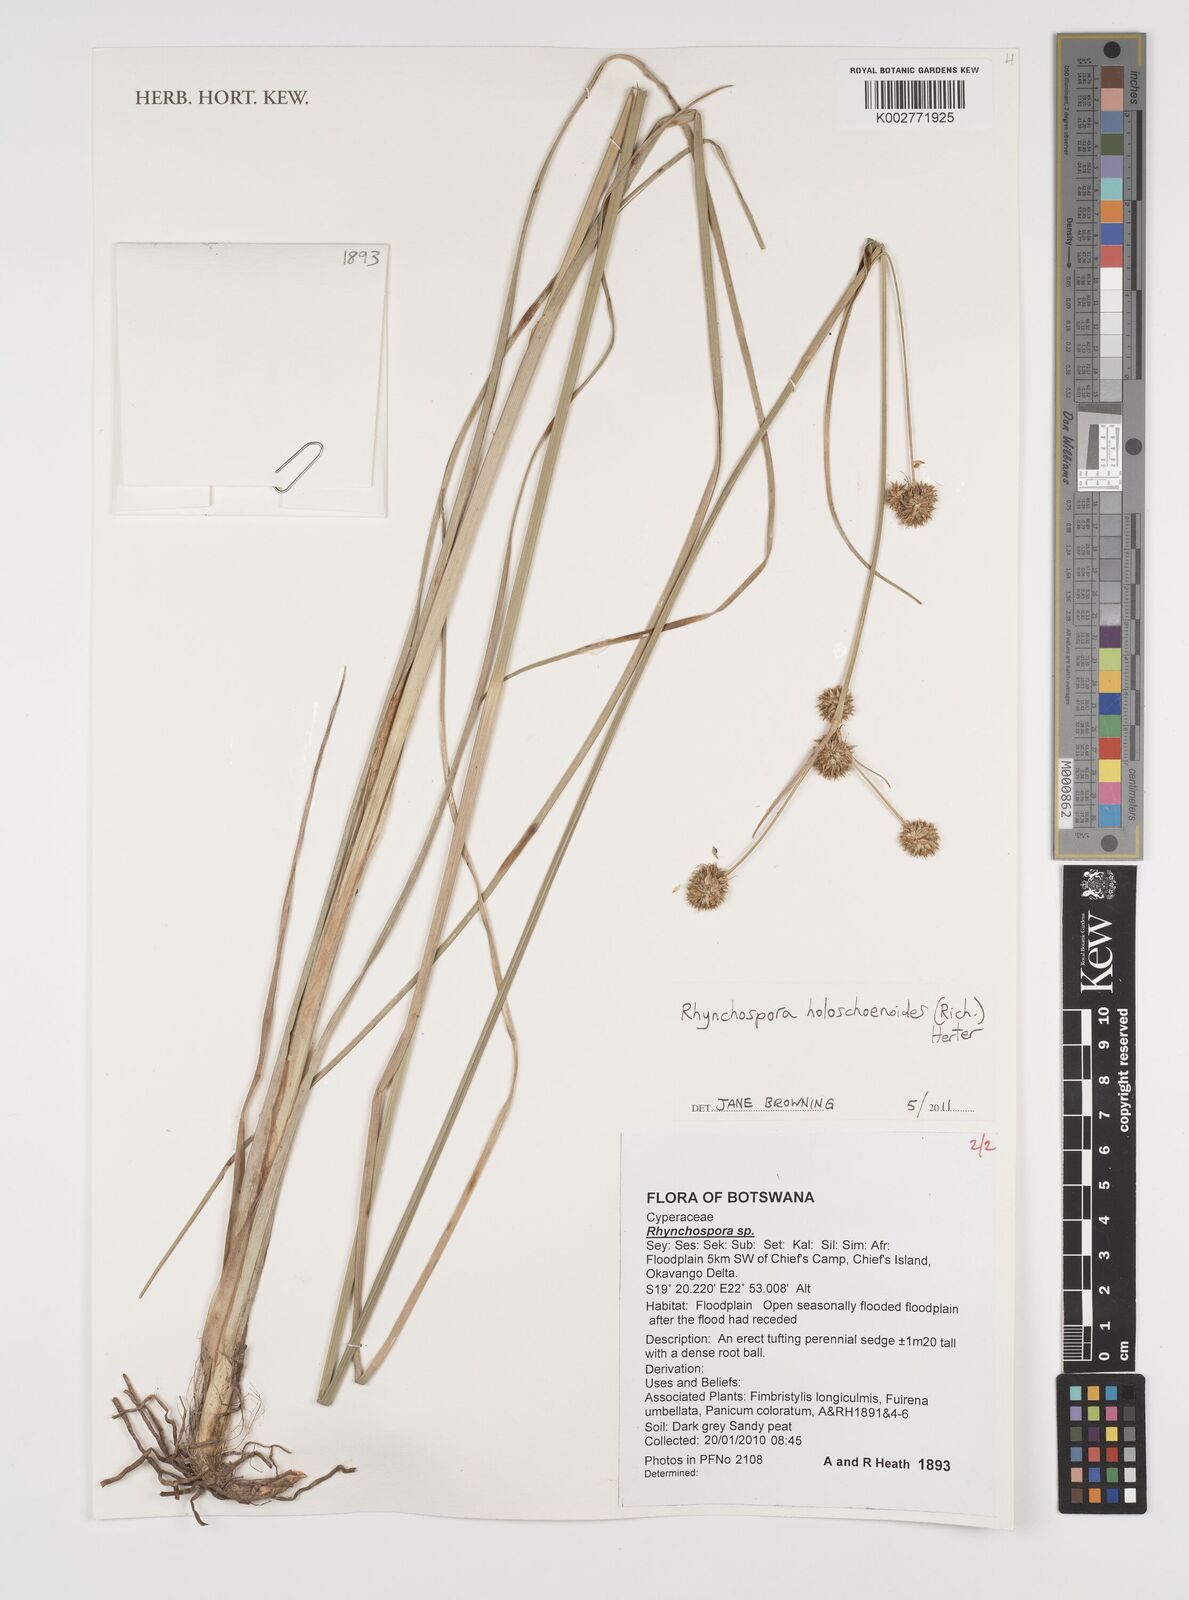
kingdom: Plantae
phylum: Tracheophyta
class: Liliopsida
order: Poales
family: Cyperaceae
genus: Rhynchospora
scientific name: Rhynchospora holoschoenoides
